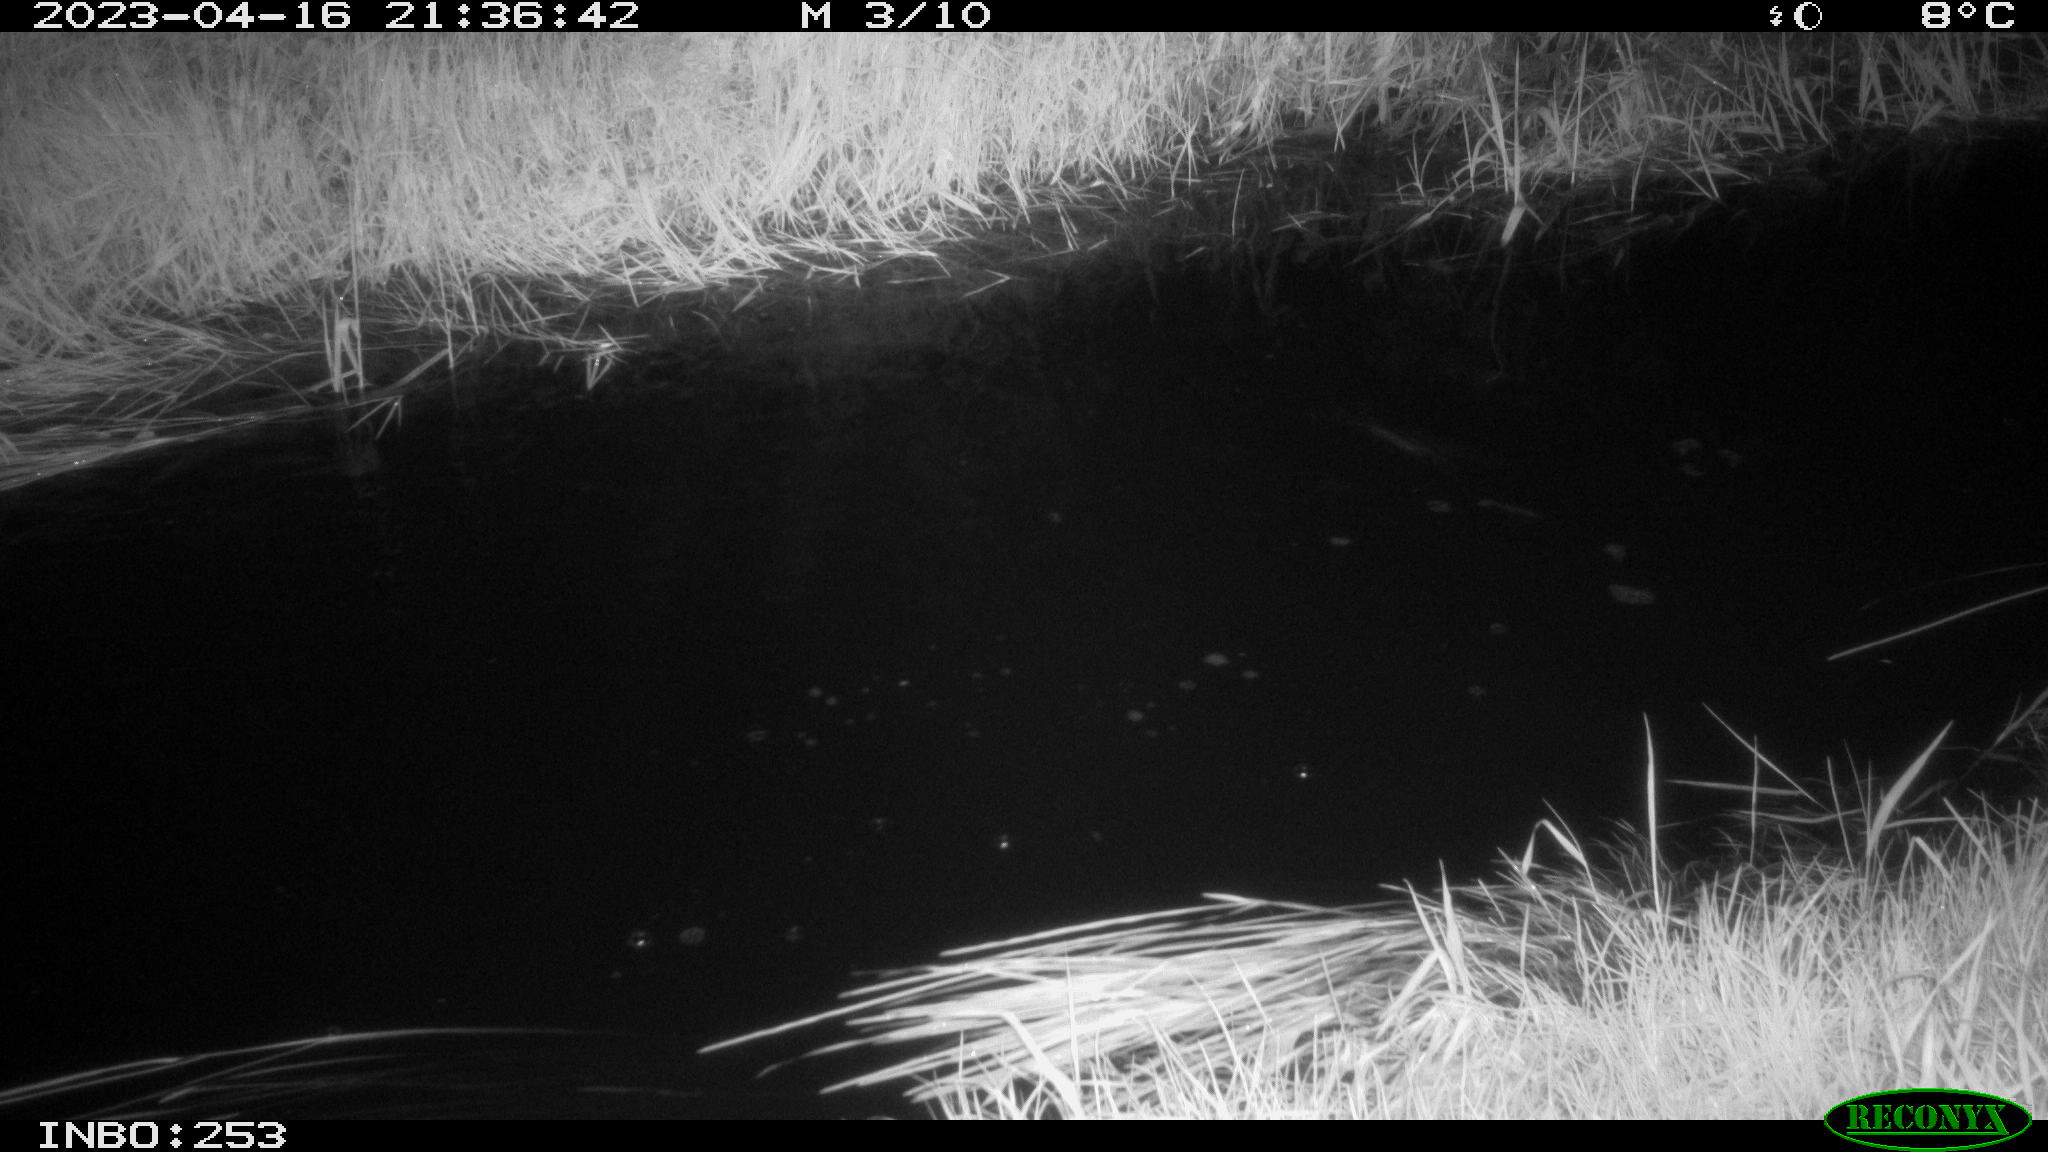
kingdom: Animalia
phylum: Chordata
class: Aves
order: Anseriformes
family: Anatidae
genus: Anas
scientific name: Anas
